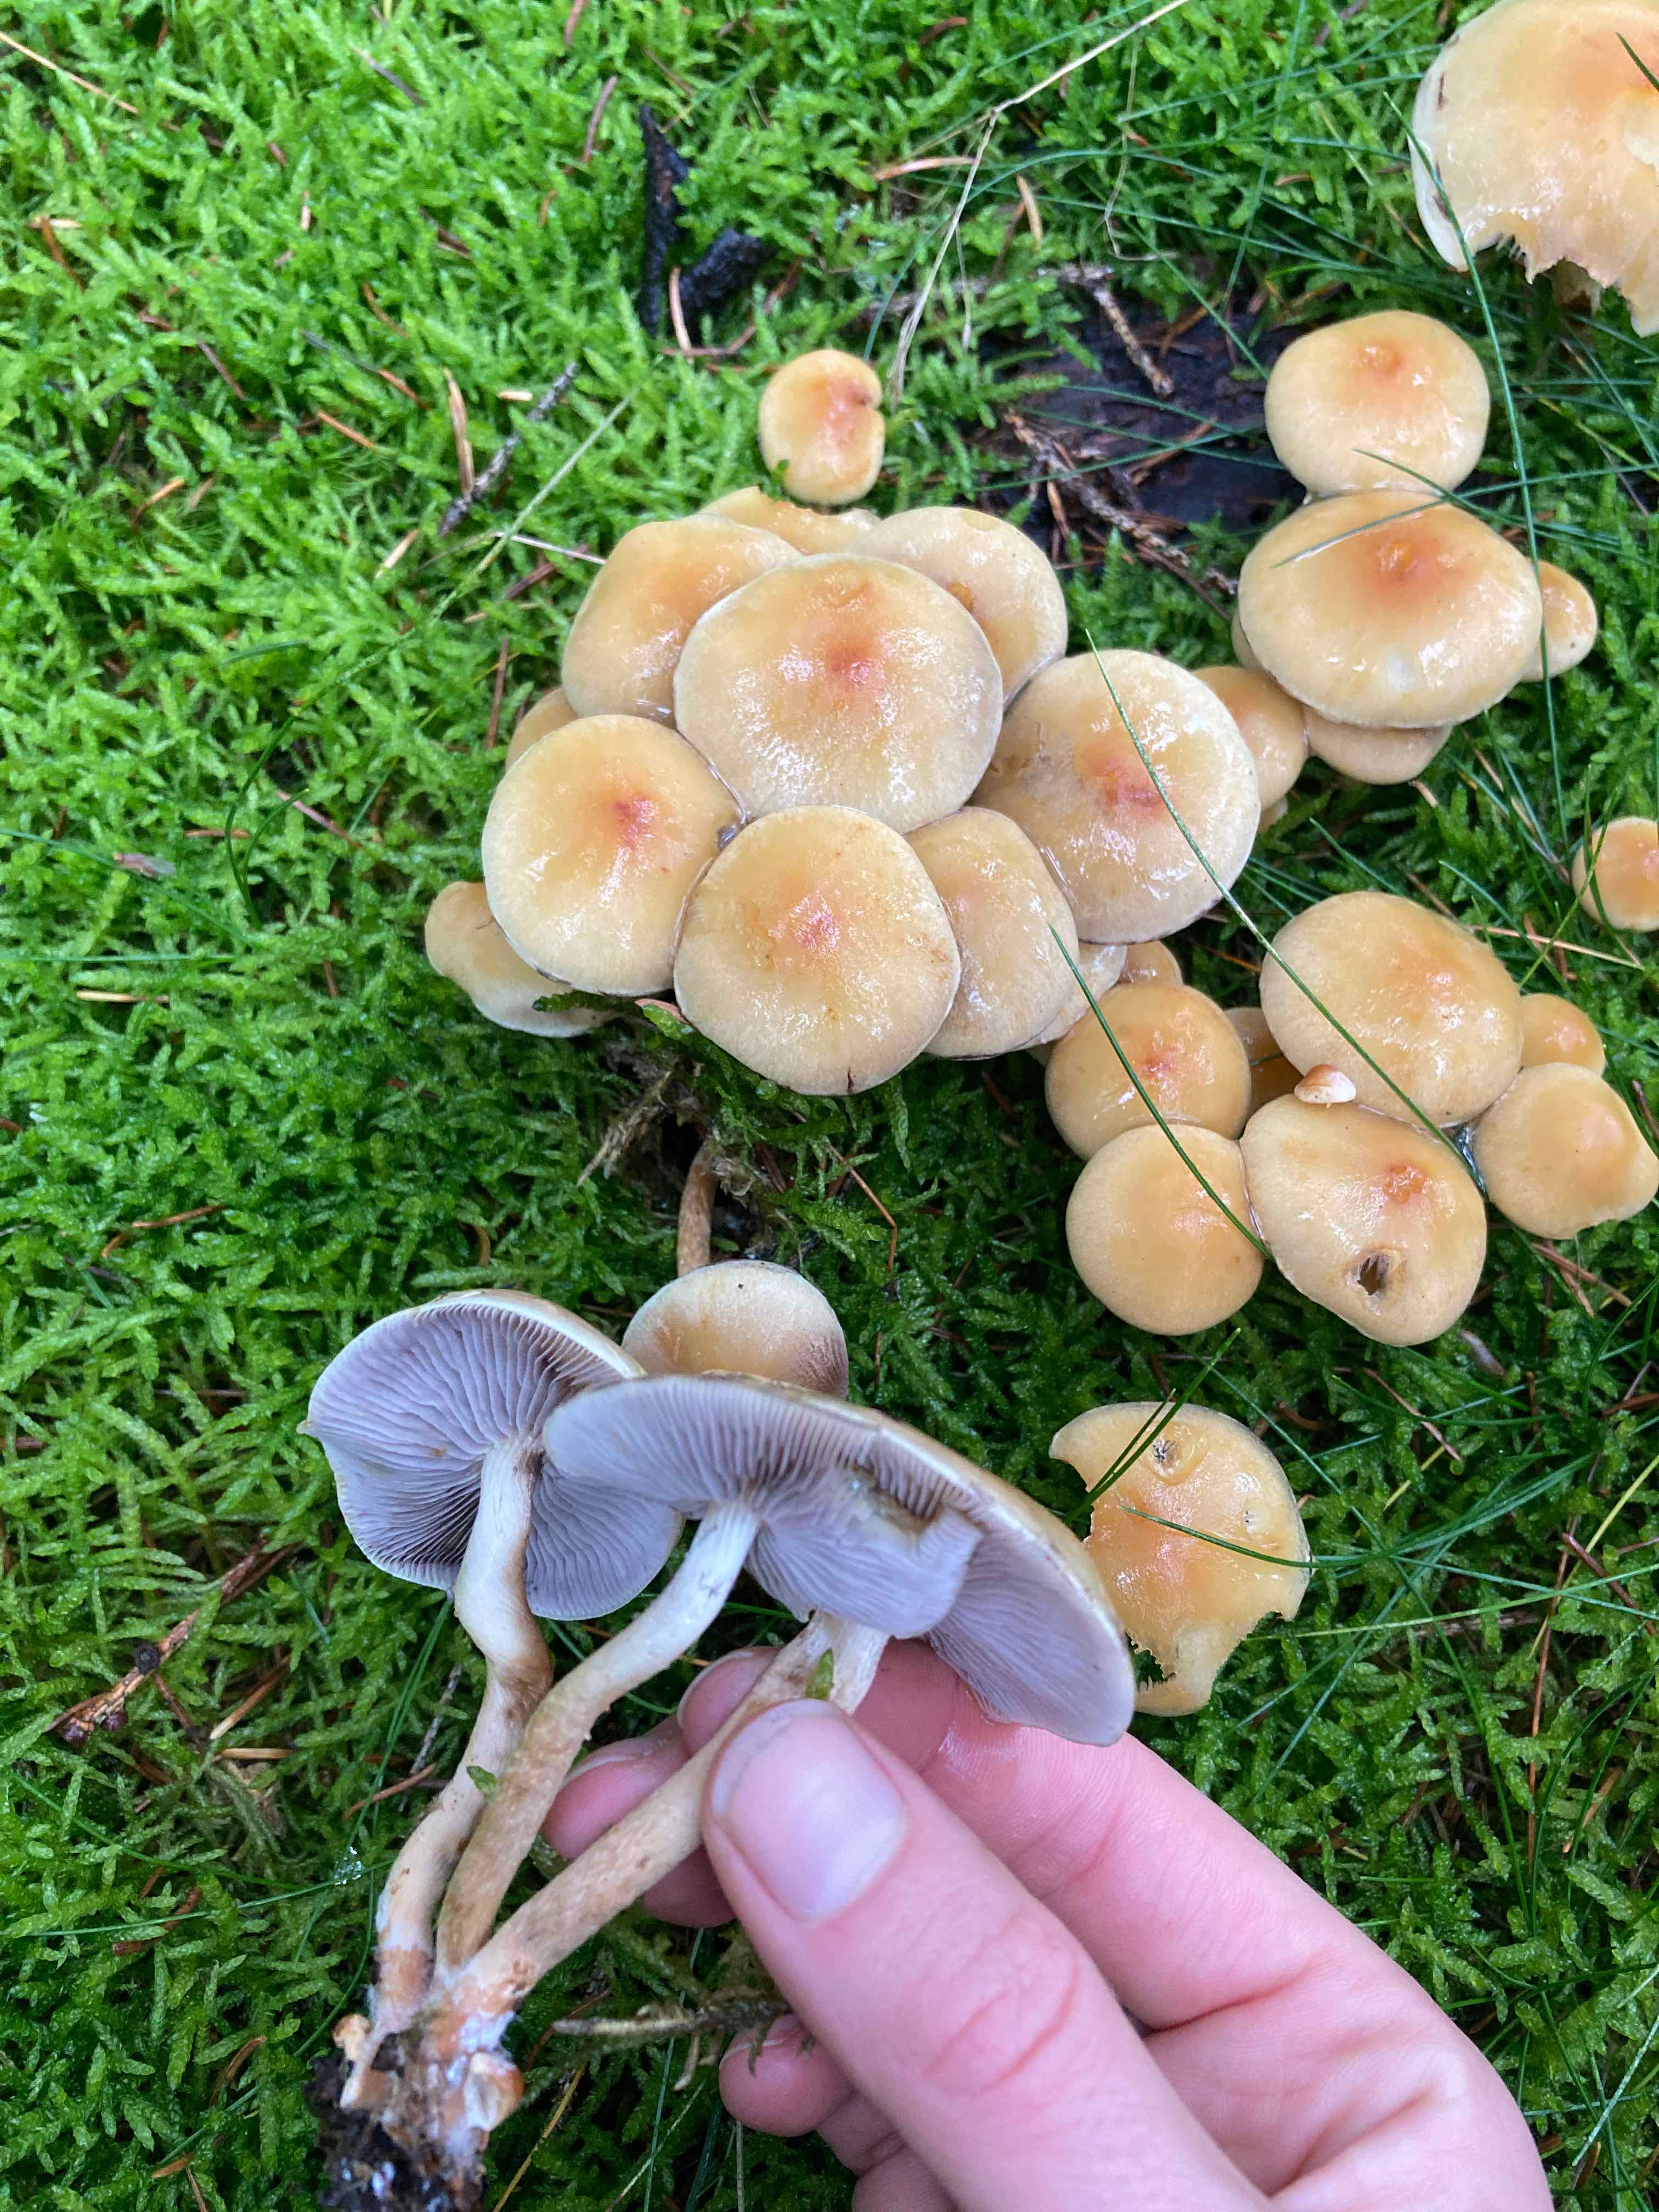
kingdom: Fungi
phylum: Basidiomycota
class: Agaricomycetes
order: Agaricales
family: Strophariaceae
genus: Hypholoma
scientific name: Hypholoma capnoides
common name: gran-svovlhat
